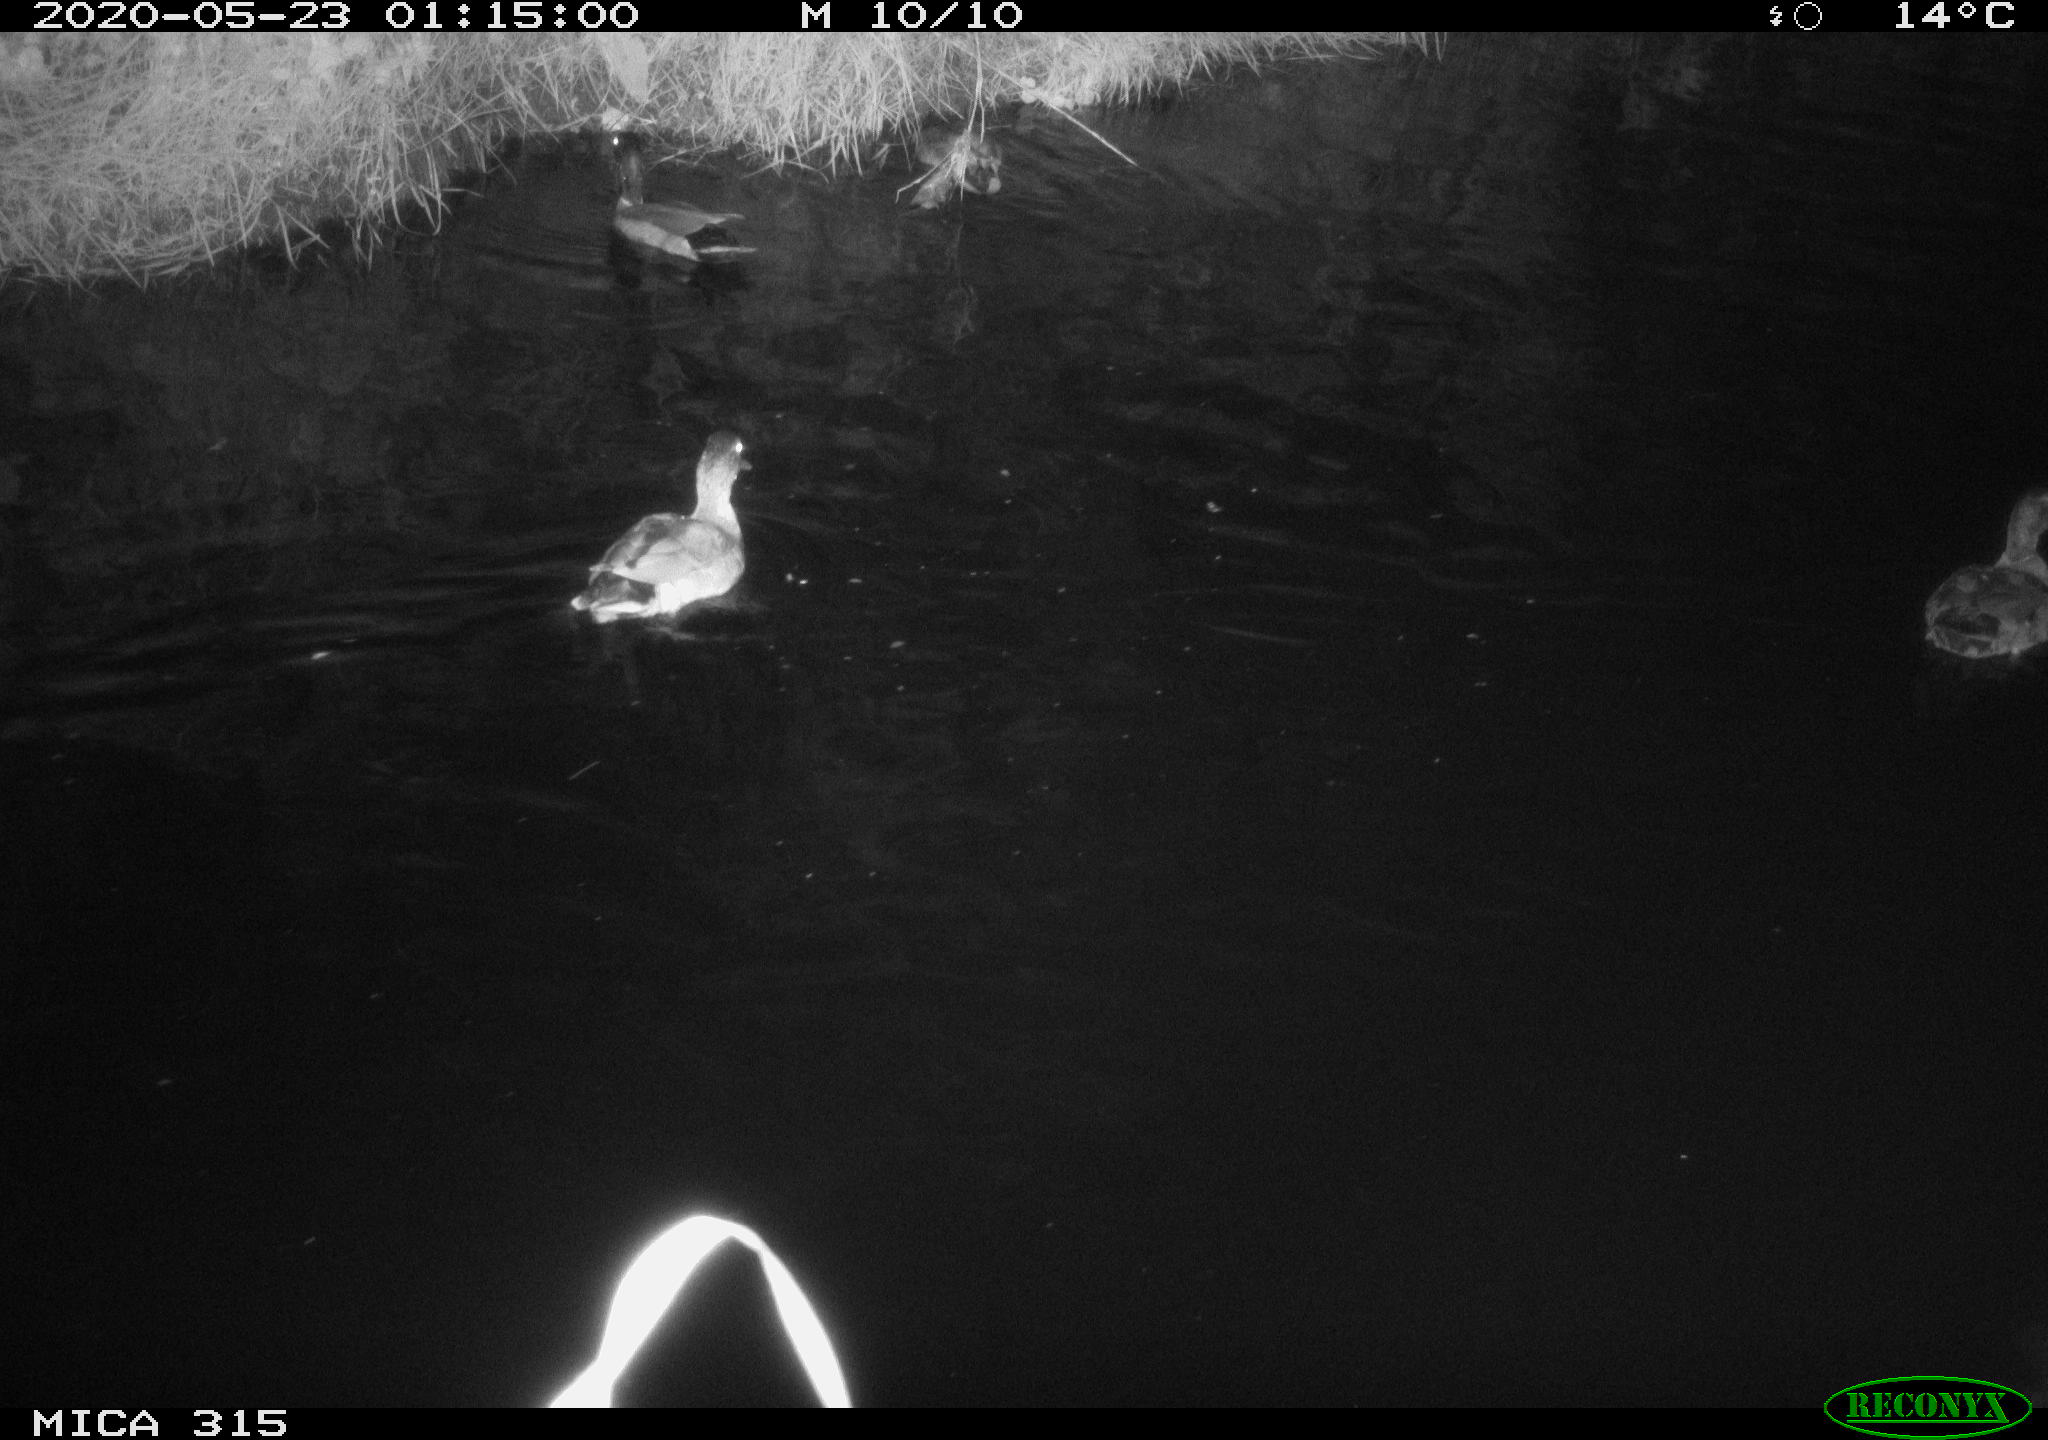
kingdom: Animalia
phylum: Chordata
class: Aves
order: Anseriformes
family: Anatidae
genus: Anas
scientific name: Anas platyrhynchos
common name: Mallard
